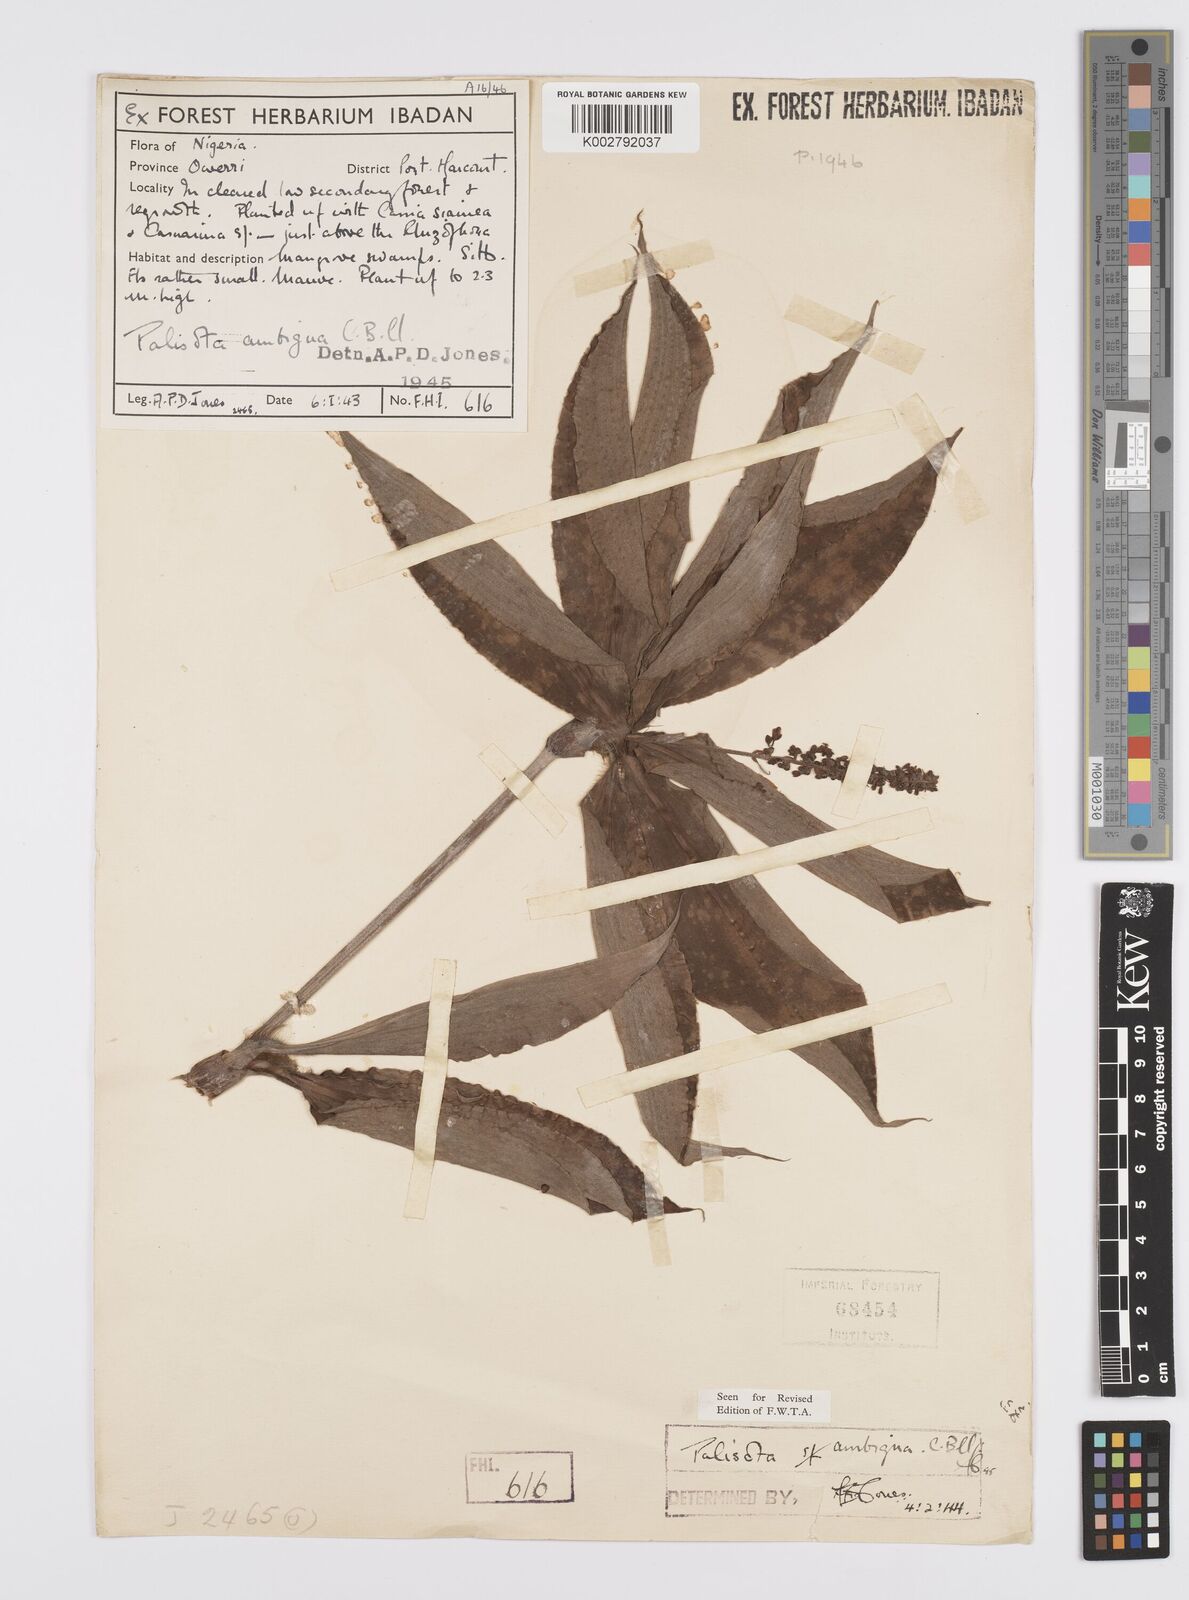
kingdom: Plantae
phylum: Tracheophyta
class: Liliopsida
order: Commelinales
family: Commelinaceae
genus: Palisota
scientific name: Palisota ambigua
